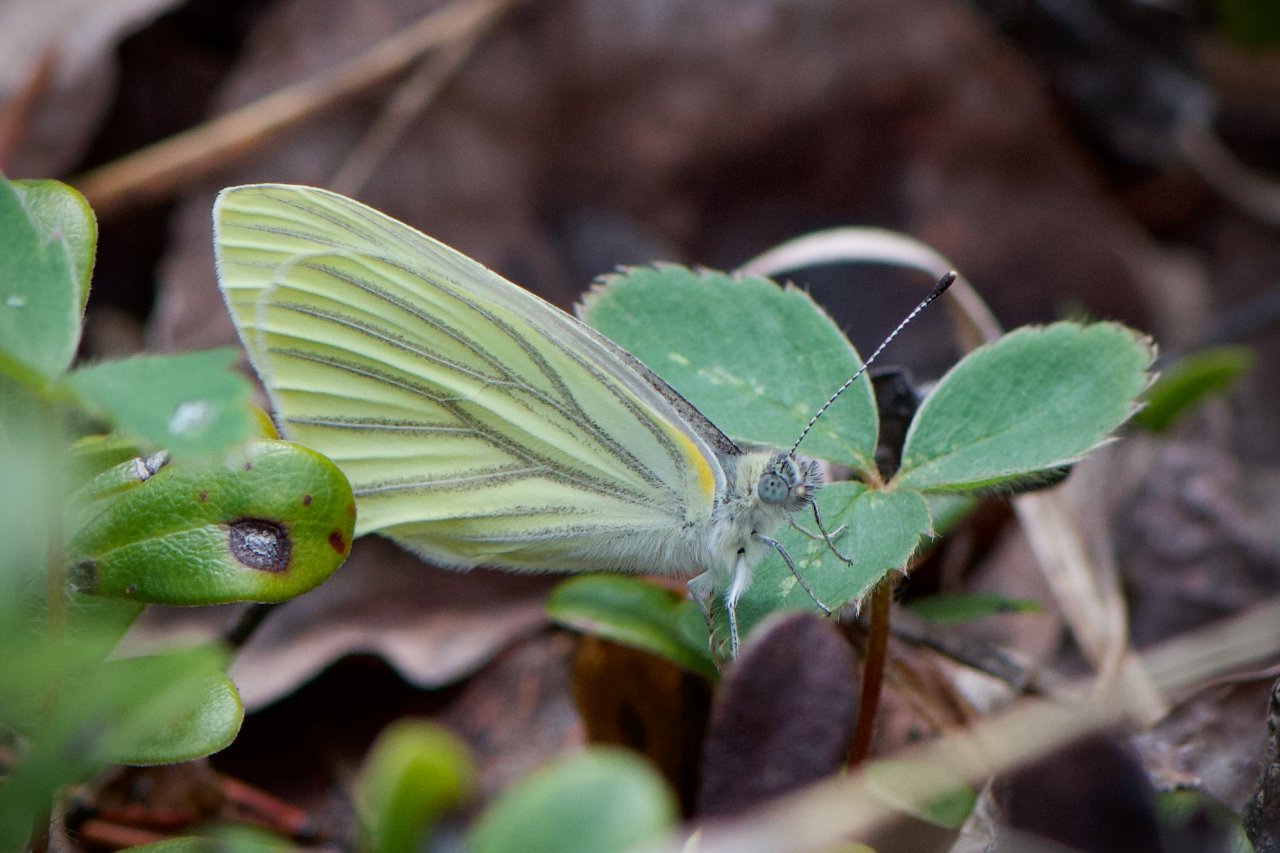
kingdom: Animalia
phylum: Arthropoda
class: Insecta
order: Lepidoptera
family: Pieridae
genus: Pieris
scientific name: Pieris oleracea
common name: Mustard White
